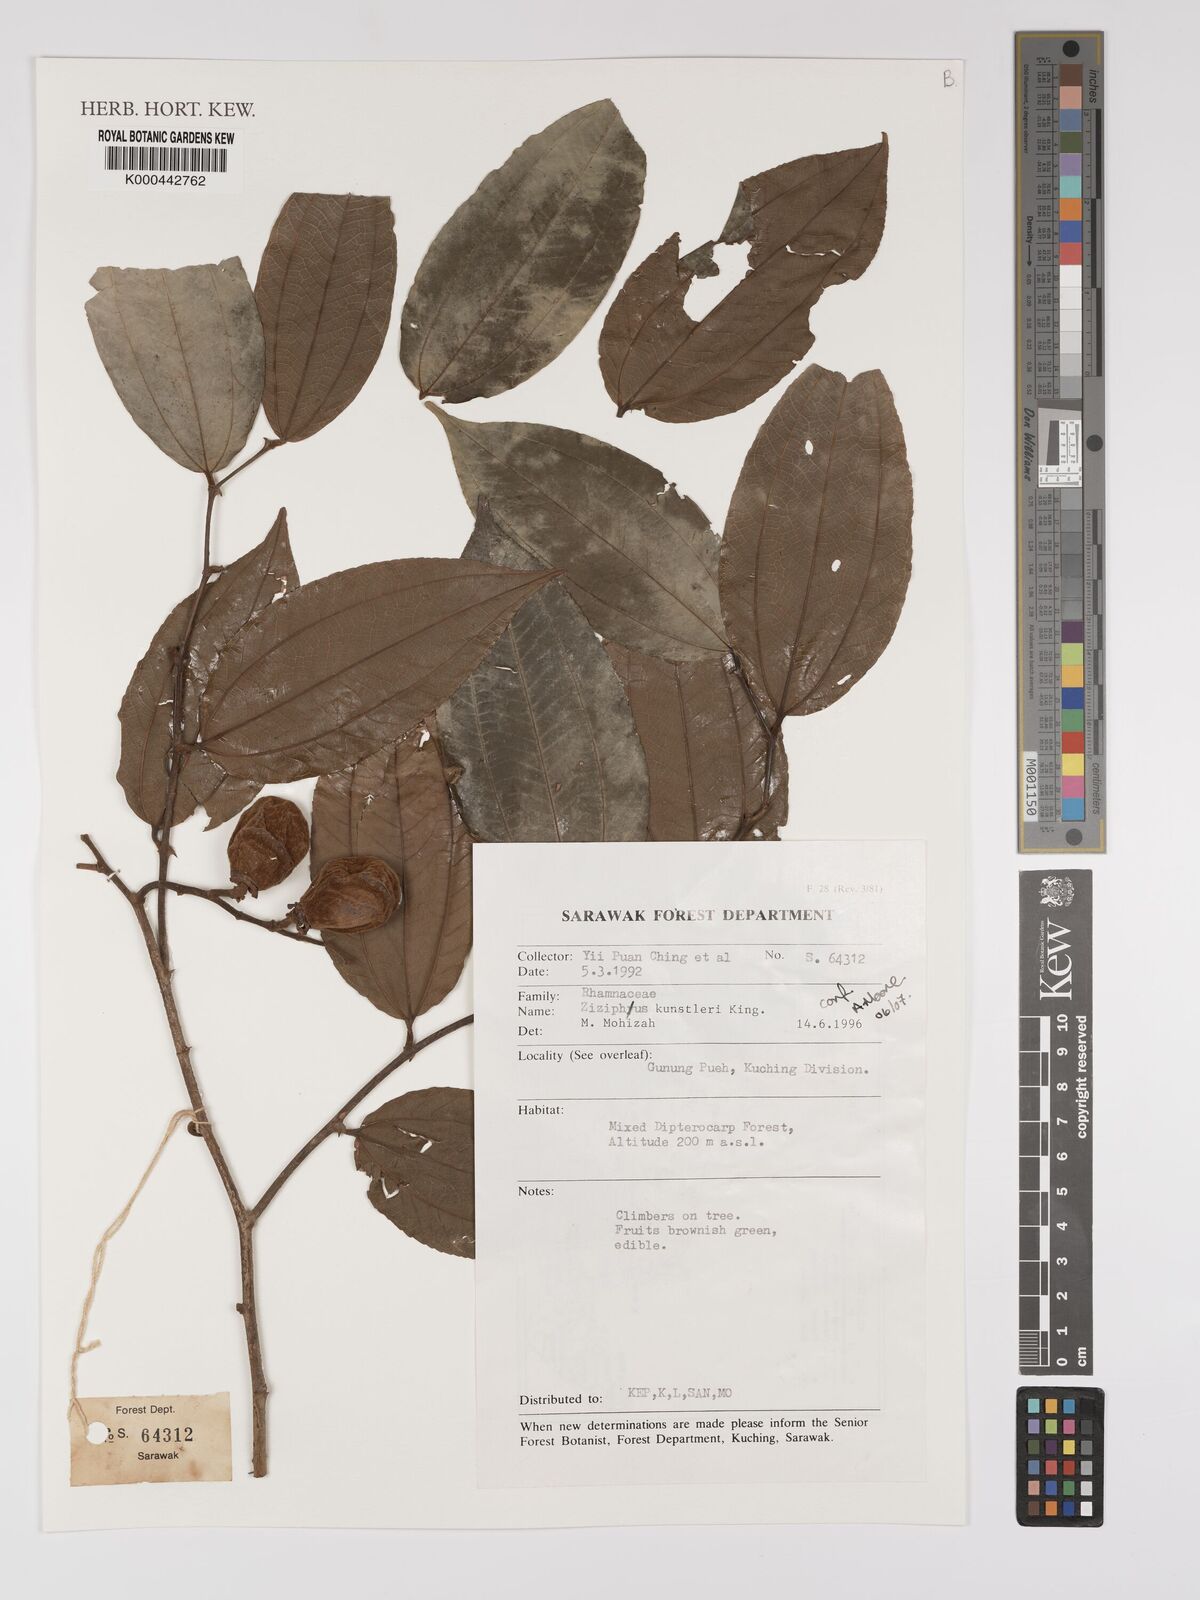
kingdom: Plantae
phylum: Tracheophyta
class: Magnoliopsida
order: Rosales
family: Rhamnaceae
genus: Ziziphus
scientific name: Ziziphus kunstleri
